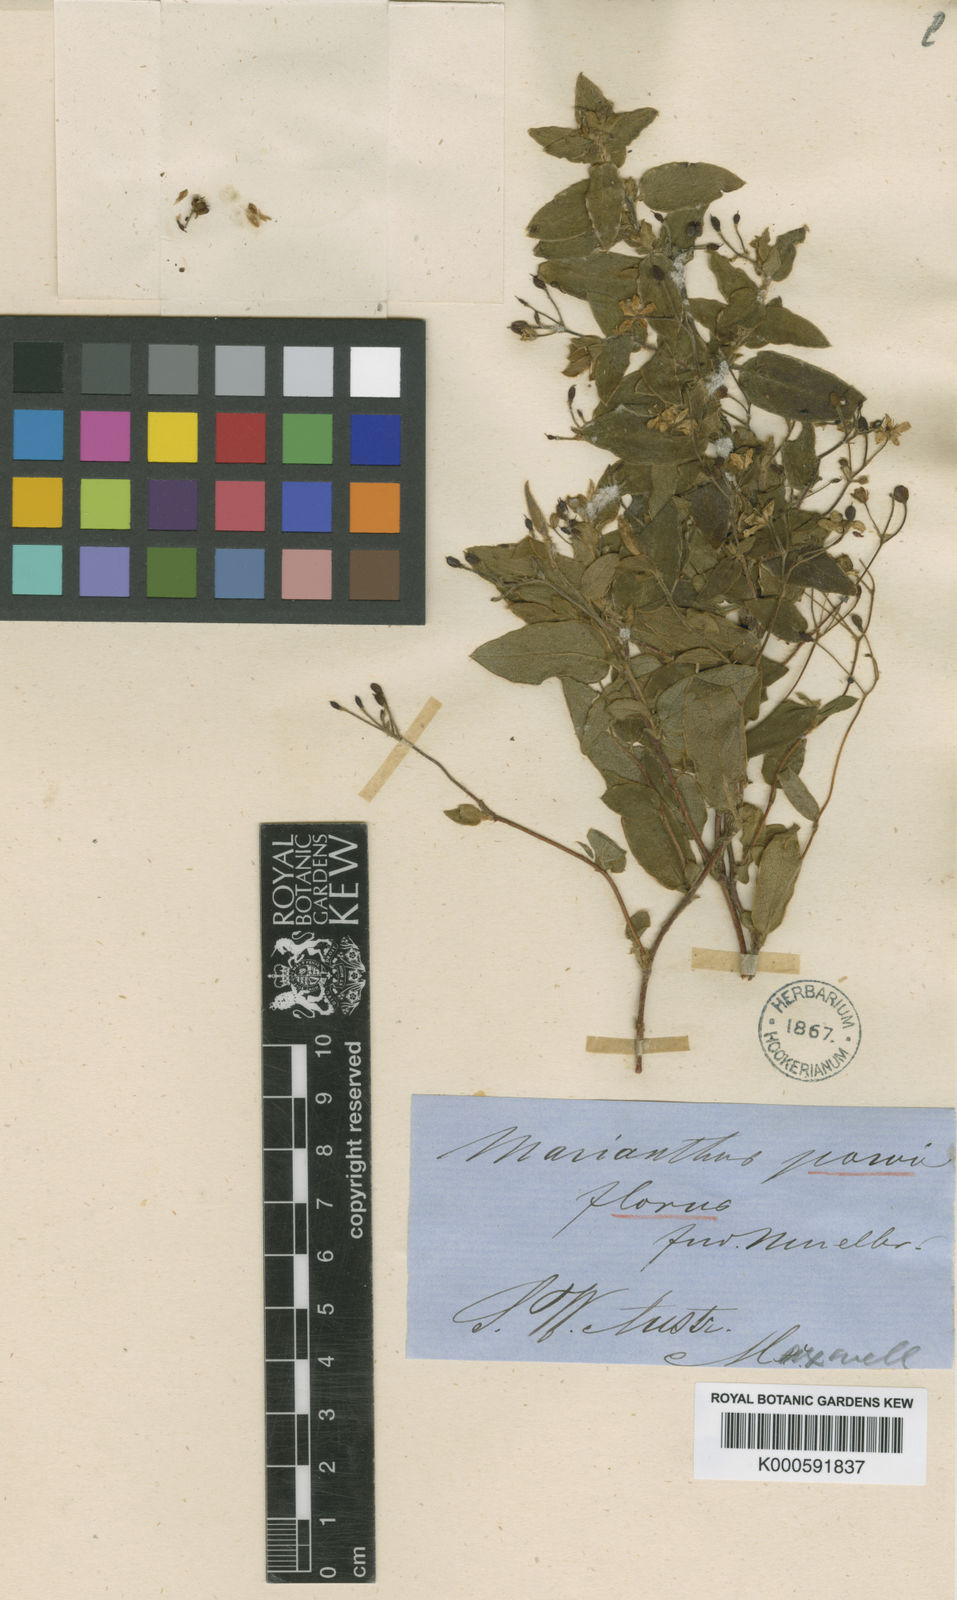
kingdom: Plantae
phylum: Tracheophyta
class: Magnoliopsida
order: Apiales
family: Pittosporaceae
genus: Marianthus
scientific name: Marianthus granulatus
